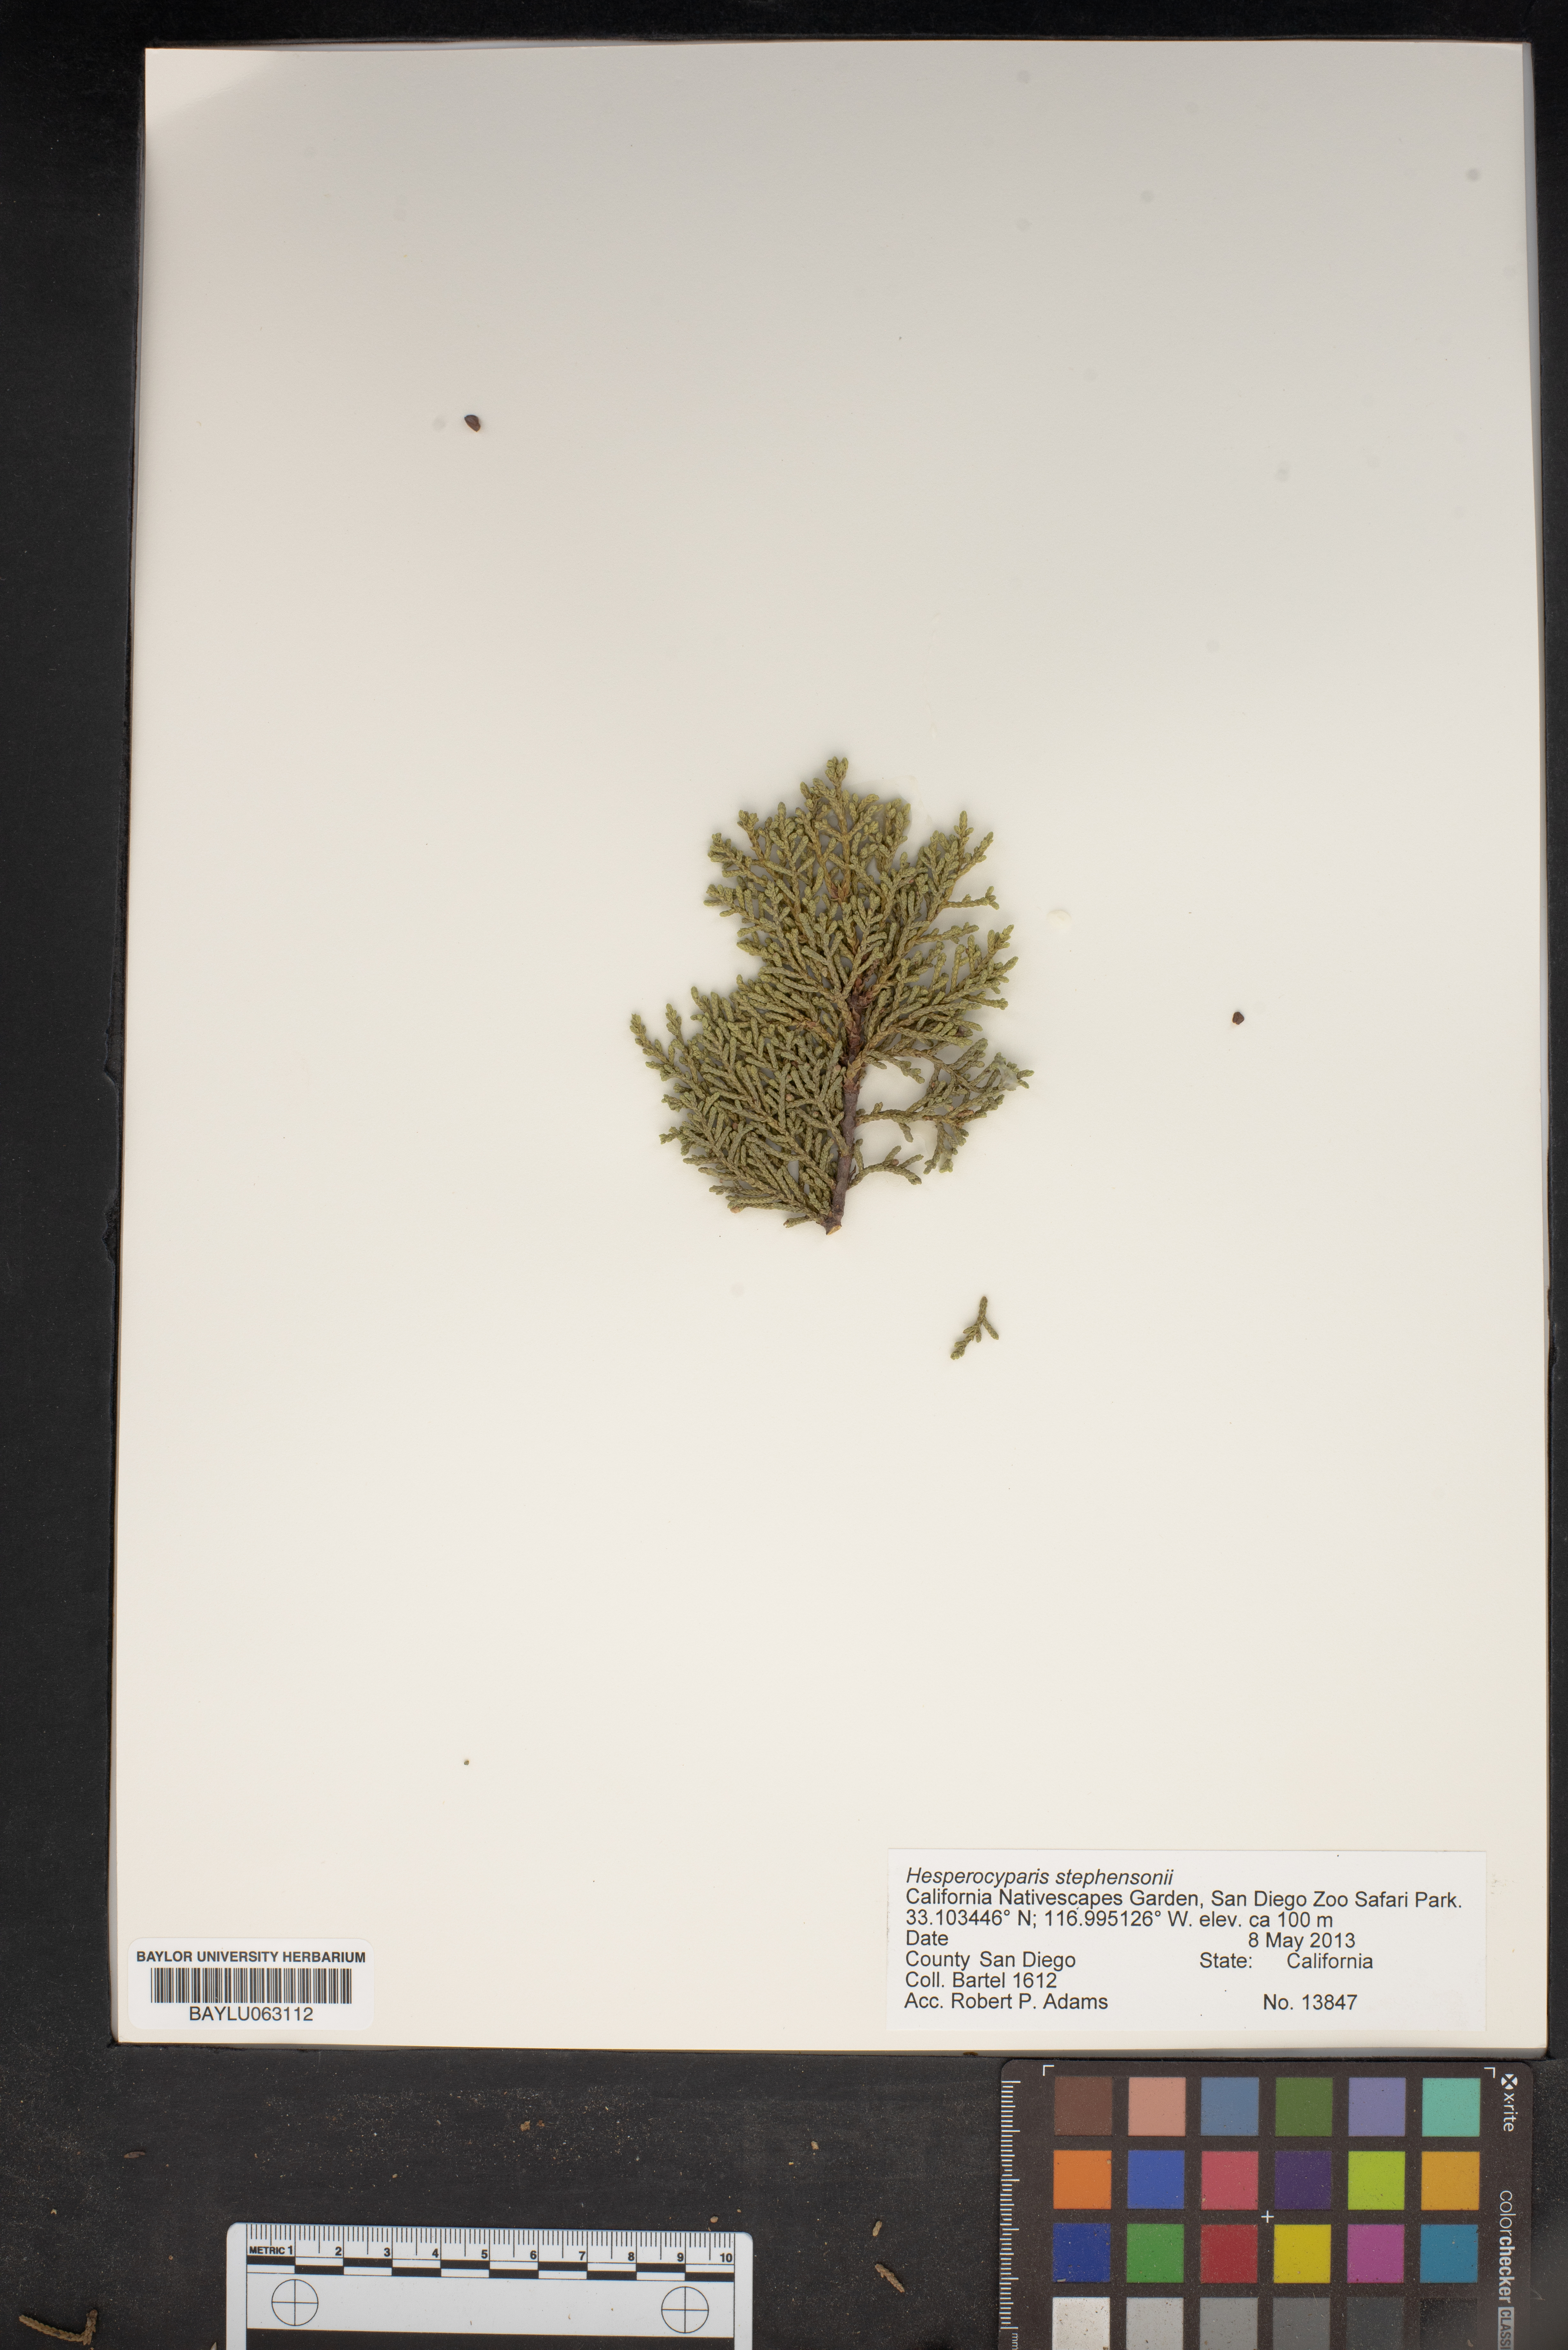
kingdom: Plantae
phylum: Tracheophyta
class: Pinopsida
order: Pinales
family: Cupressaceae
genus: Cupressus
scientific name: Cupressus arizonica
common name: Arizona cypress
